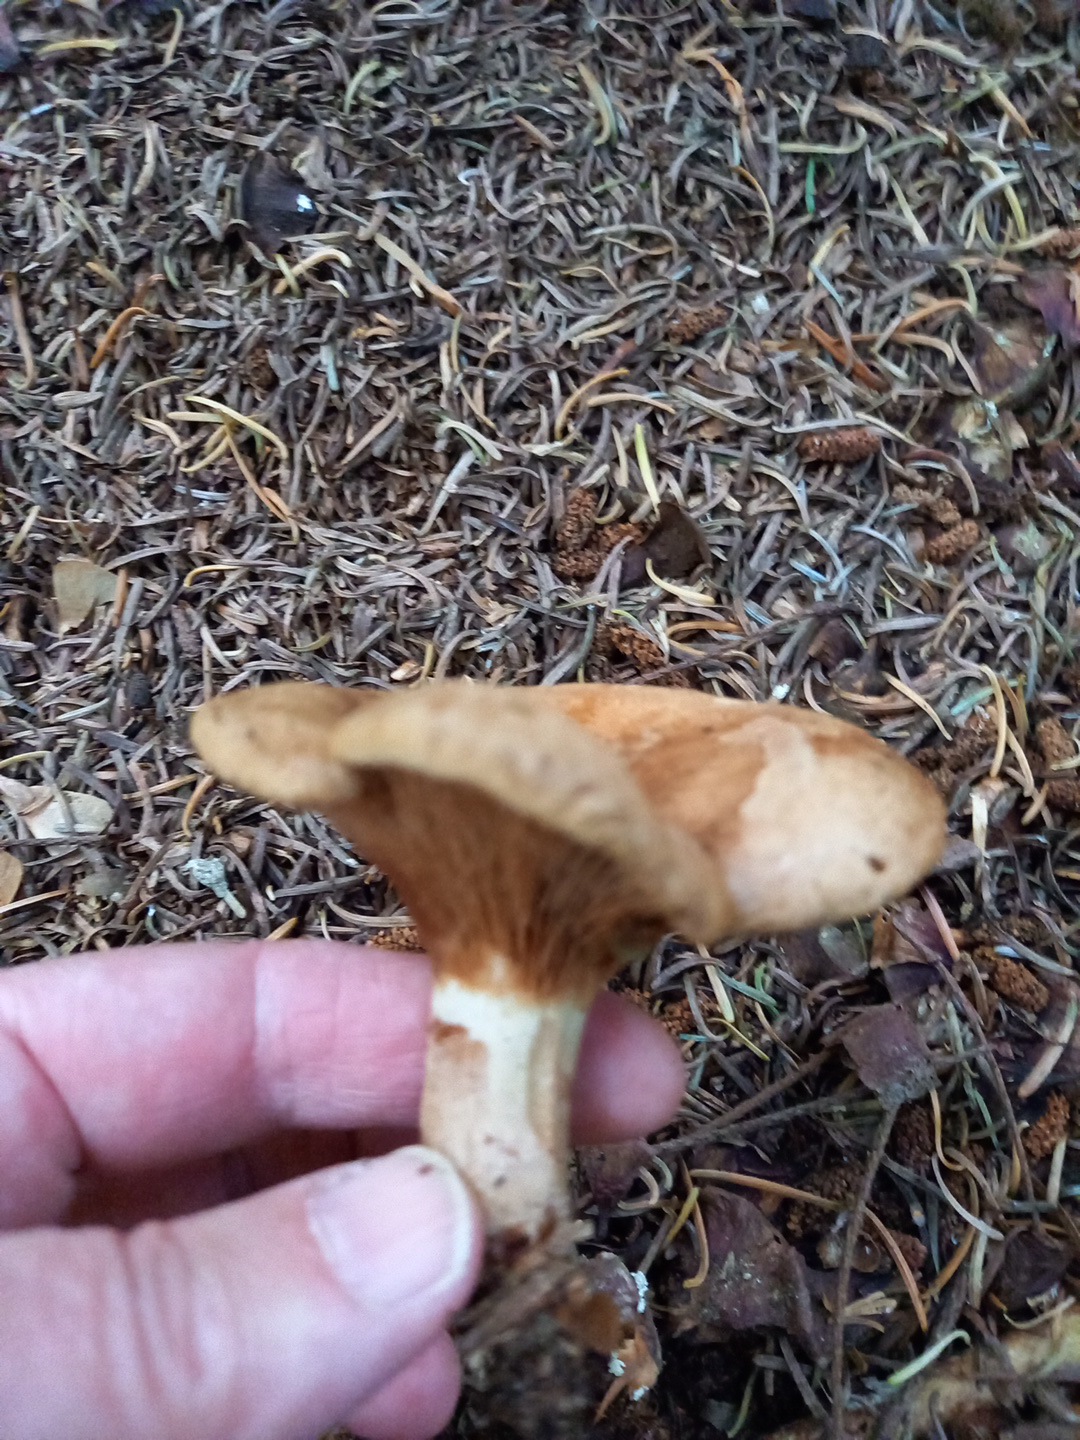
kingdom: Fungi
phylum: Basidiomycota
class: Agaricomycetes
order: Boletales
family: Paxillaceae
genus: Paxillus
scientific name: Paxillus involutus
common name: almindelig netbladhat
